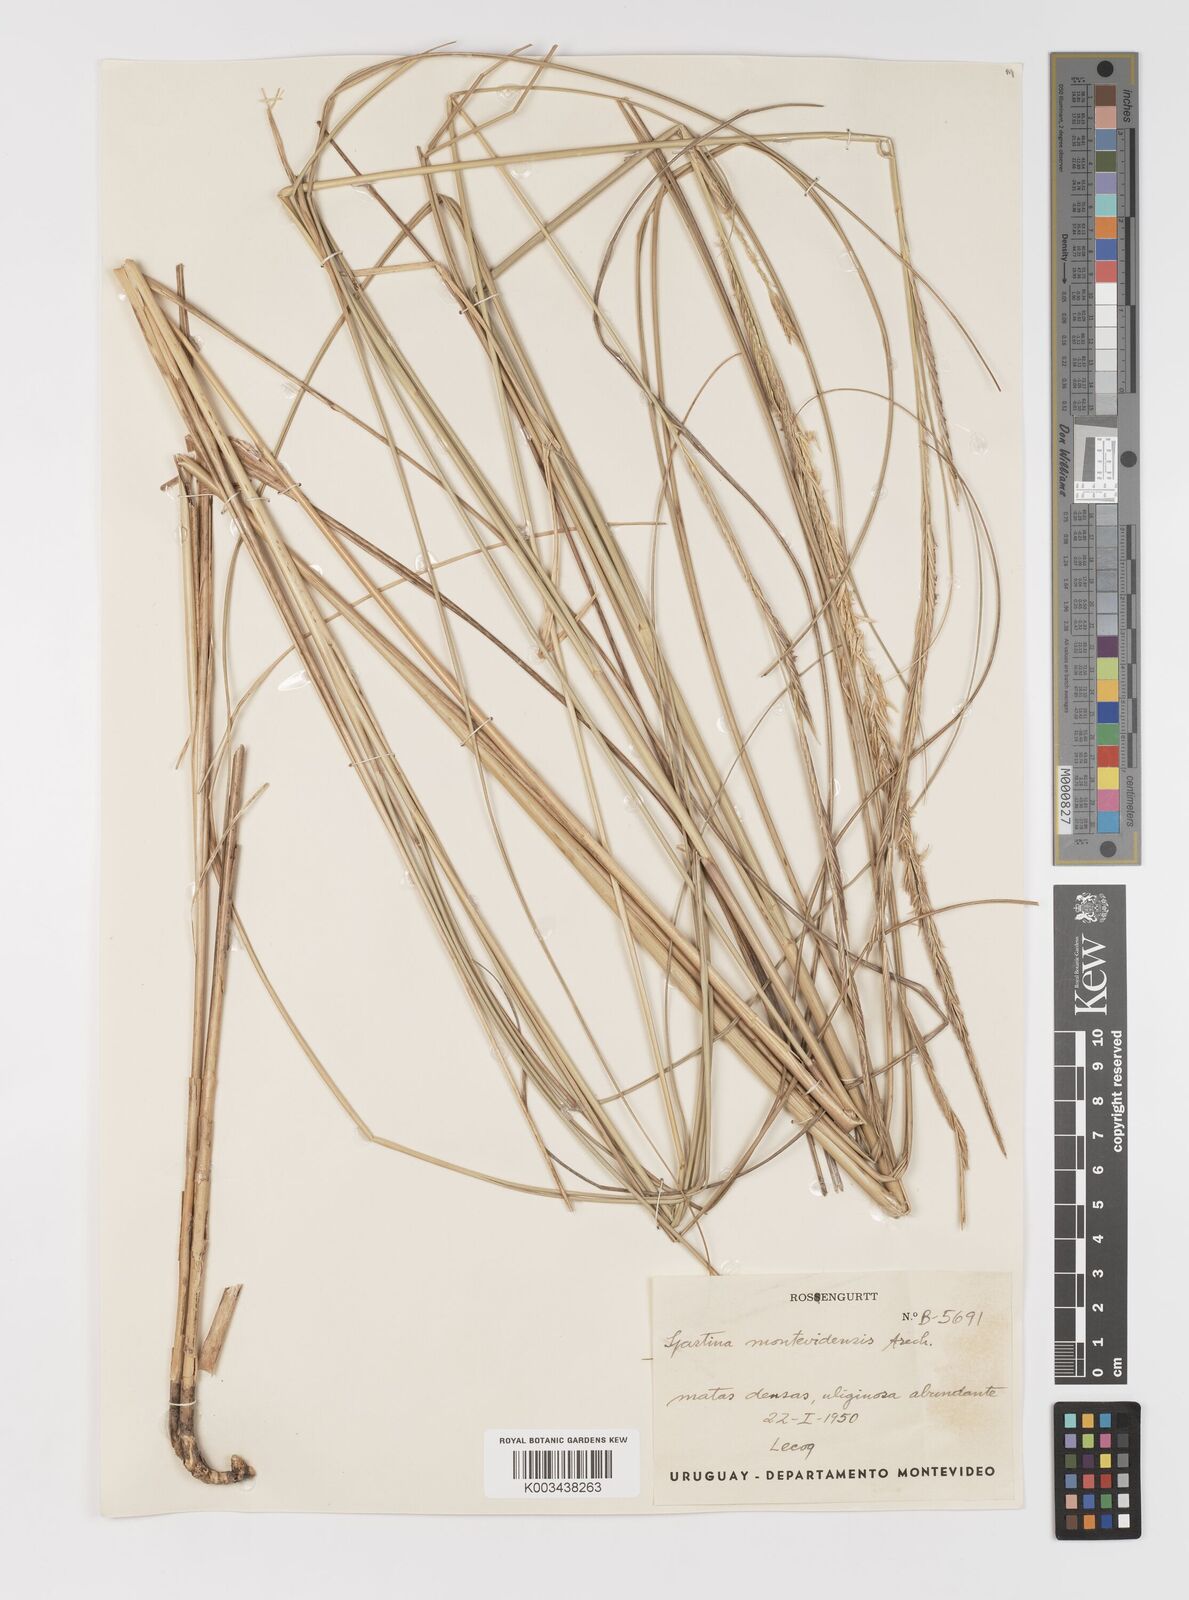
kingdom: Plantae
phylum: Tracheophyta
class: Liliopsida
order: Poales
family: Poaceae
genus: Sporobolus
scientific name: Sporobolus montevidensis
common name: Montevideo dropseed
